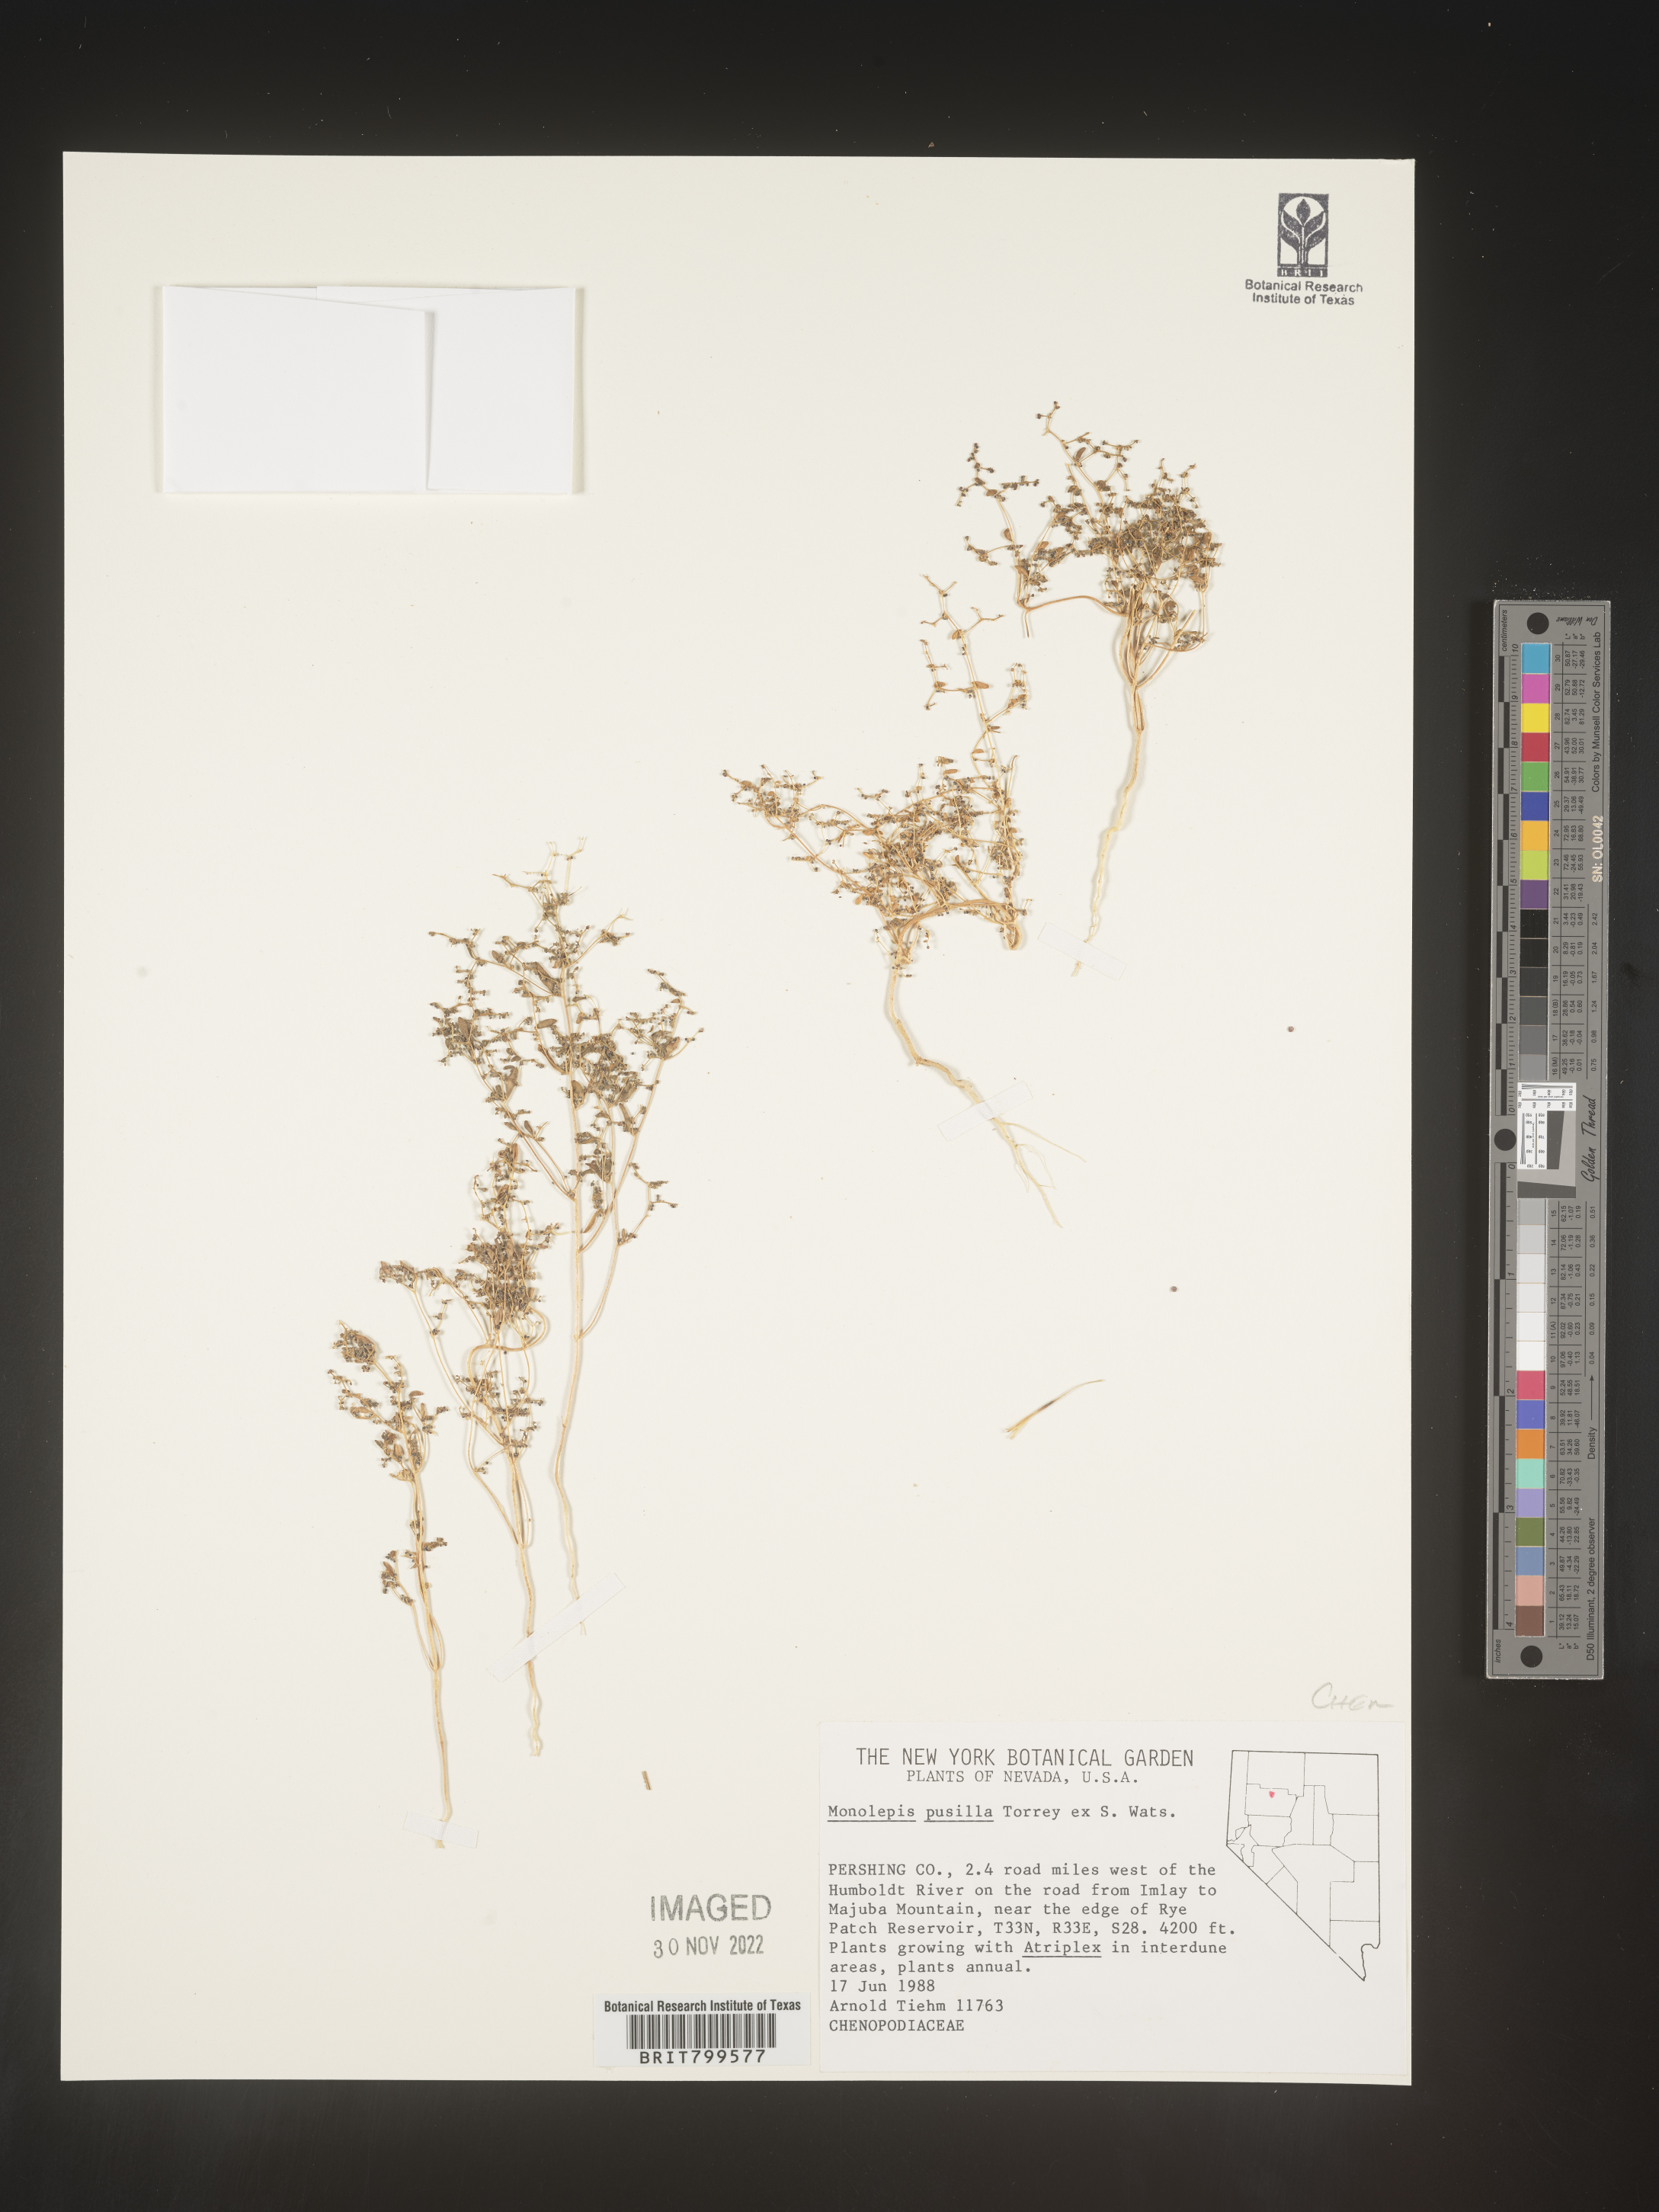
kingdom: Plantae
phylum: Tracheophyta
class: Magnoliopsida
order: Caryophyllales
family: Amaranthaceae
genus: Blitum
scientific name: Blitum
